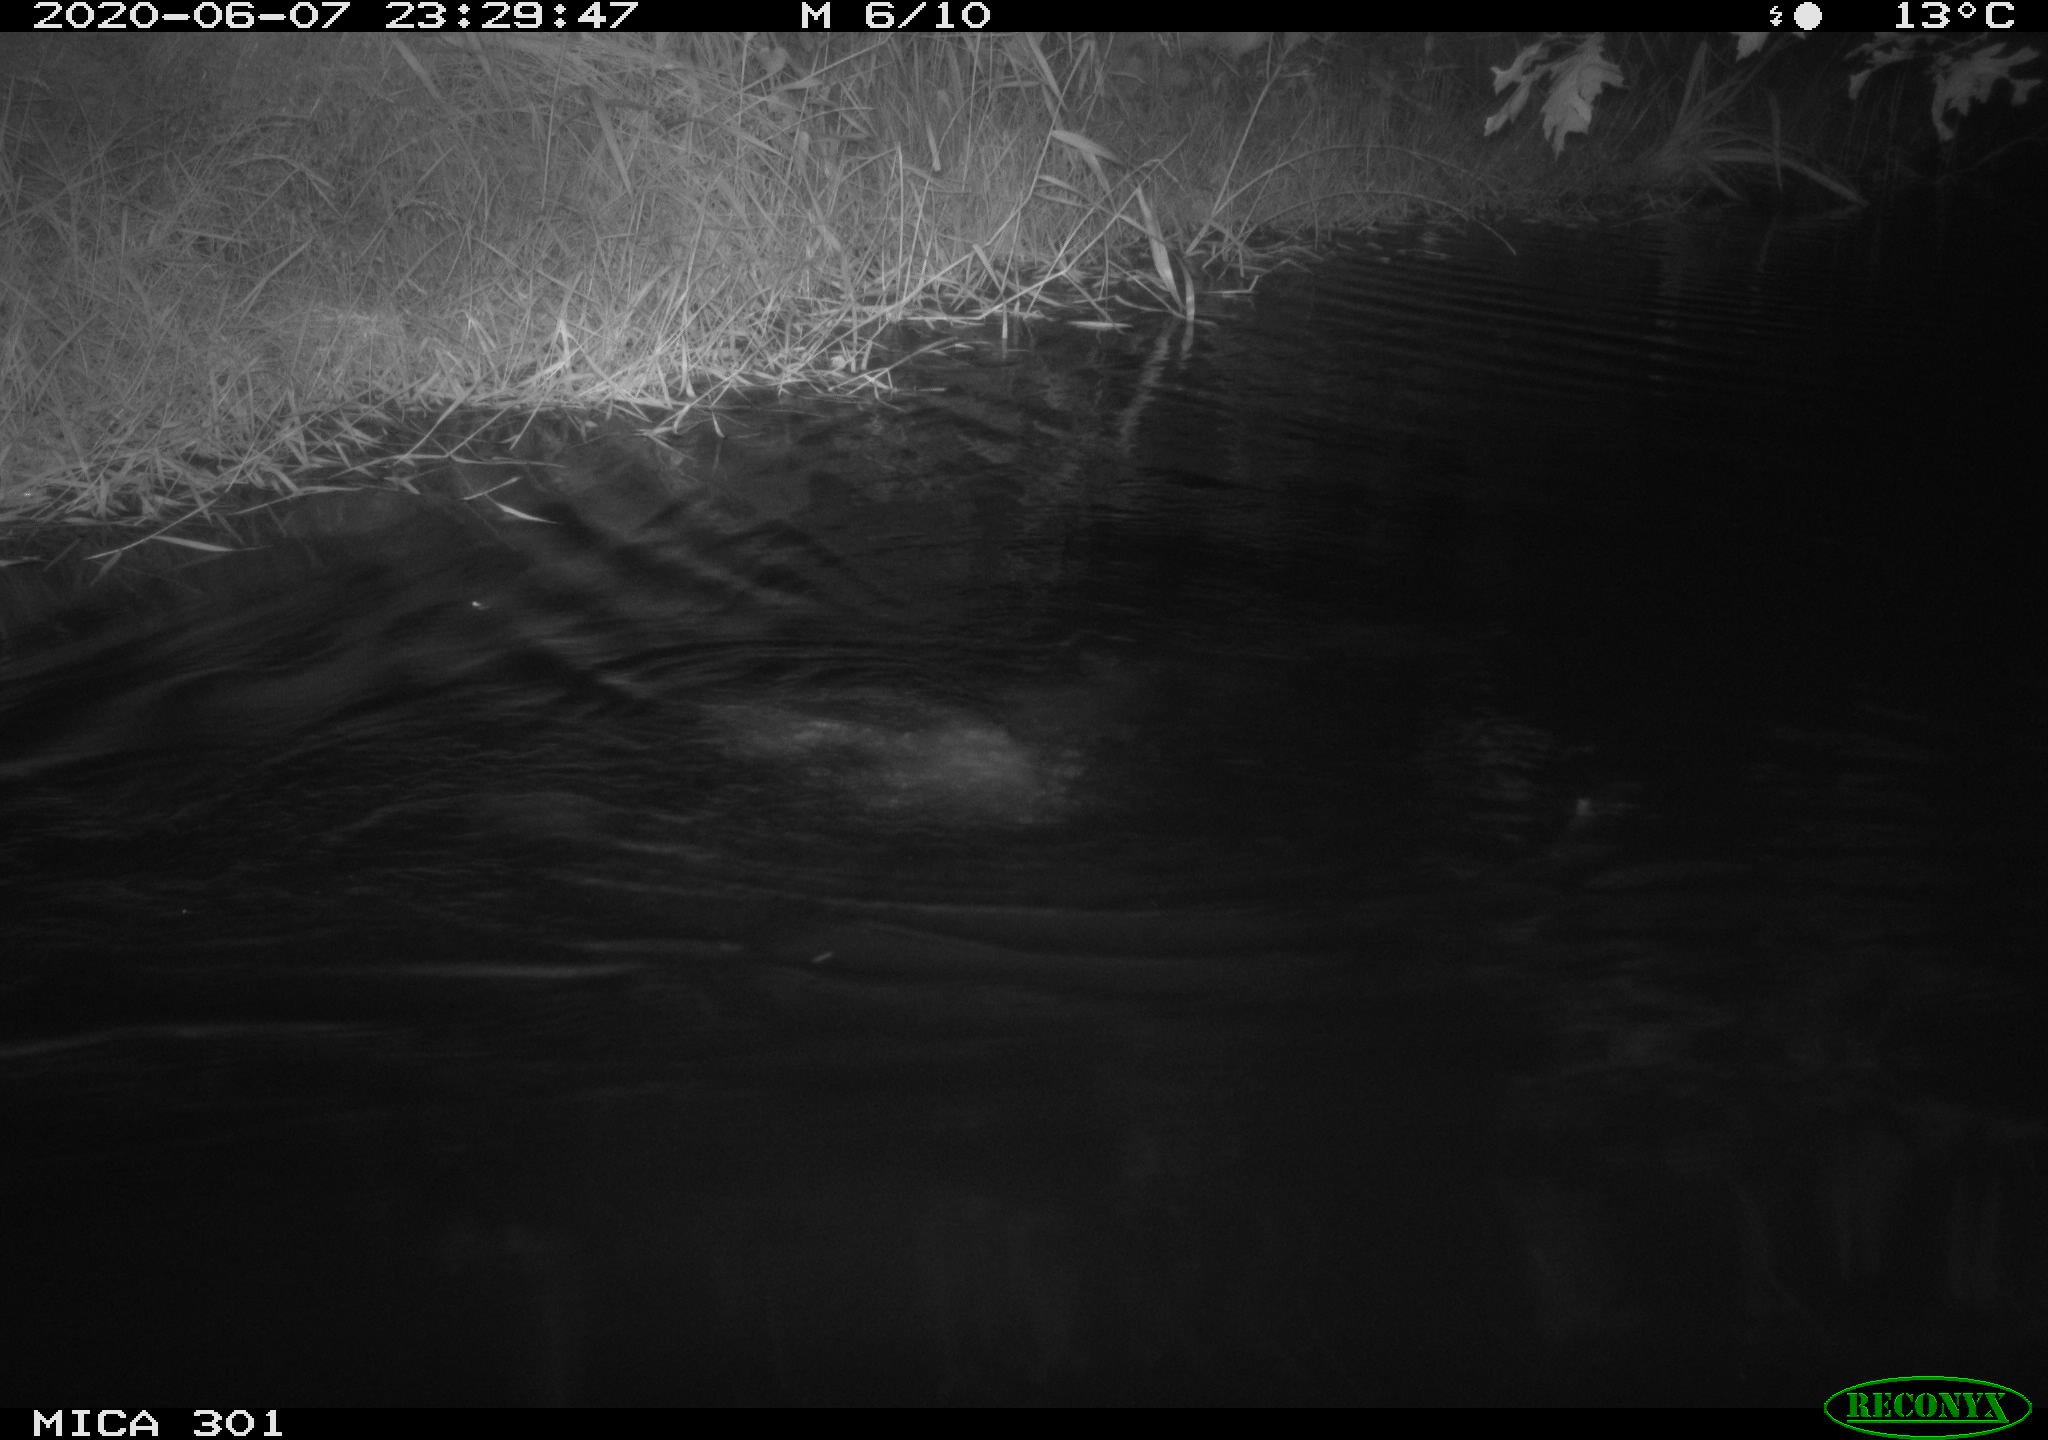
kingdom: Animalia
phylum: Chordata
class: Mammalia
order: Rodentia
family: Castoridae
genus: Castor
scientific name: Castor fiber
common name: Eurasian beaver
